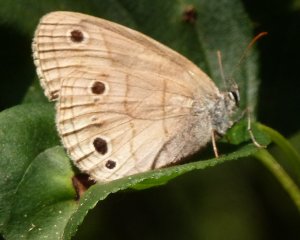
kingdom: Animalia
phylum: Arthropoda
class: Insecta
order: Lepidoptera
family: Nymphalidae
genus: Euptychia
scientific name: Euptychia cymela
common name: Little Wood Satyr
